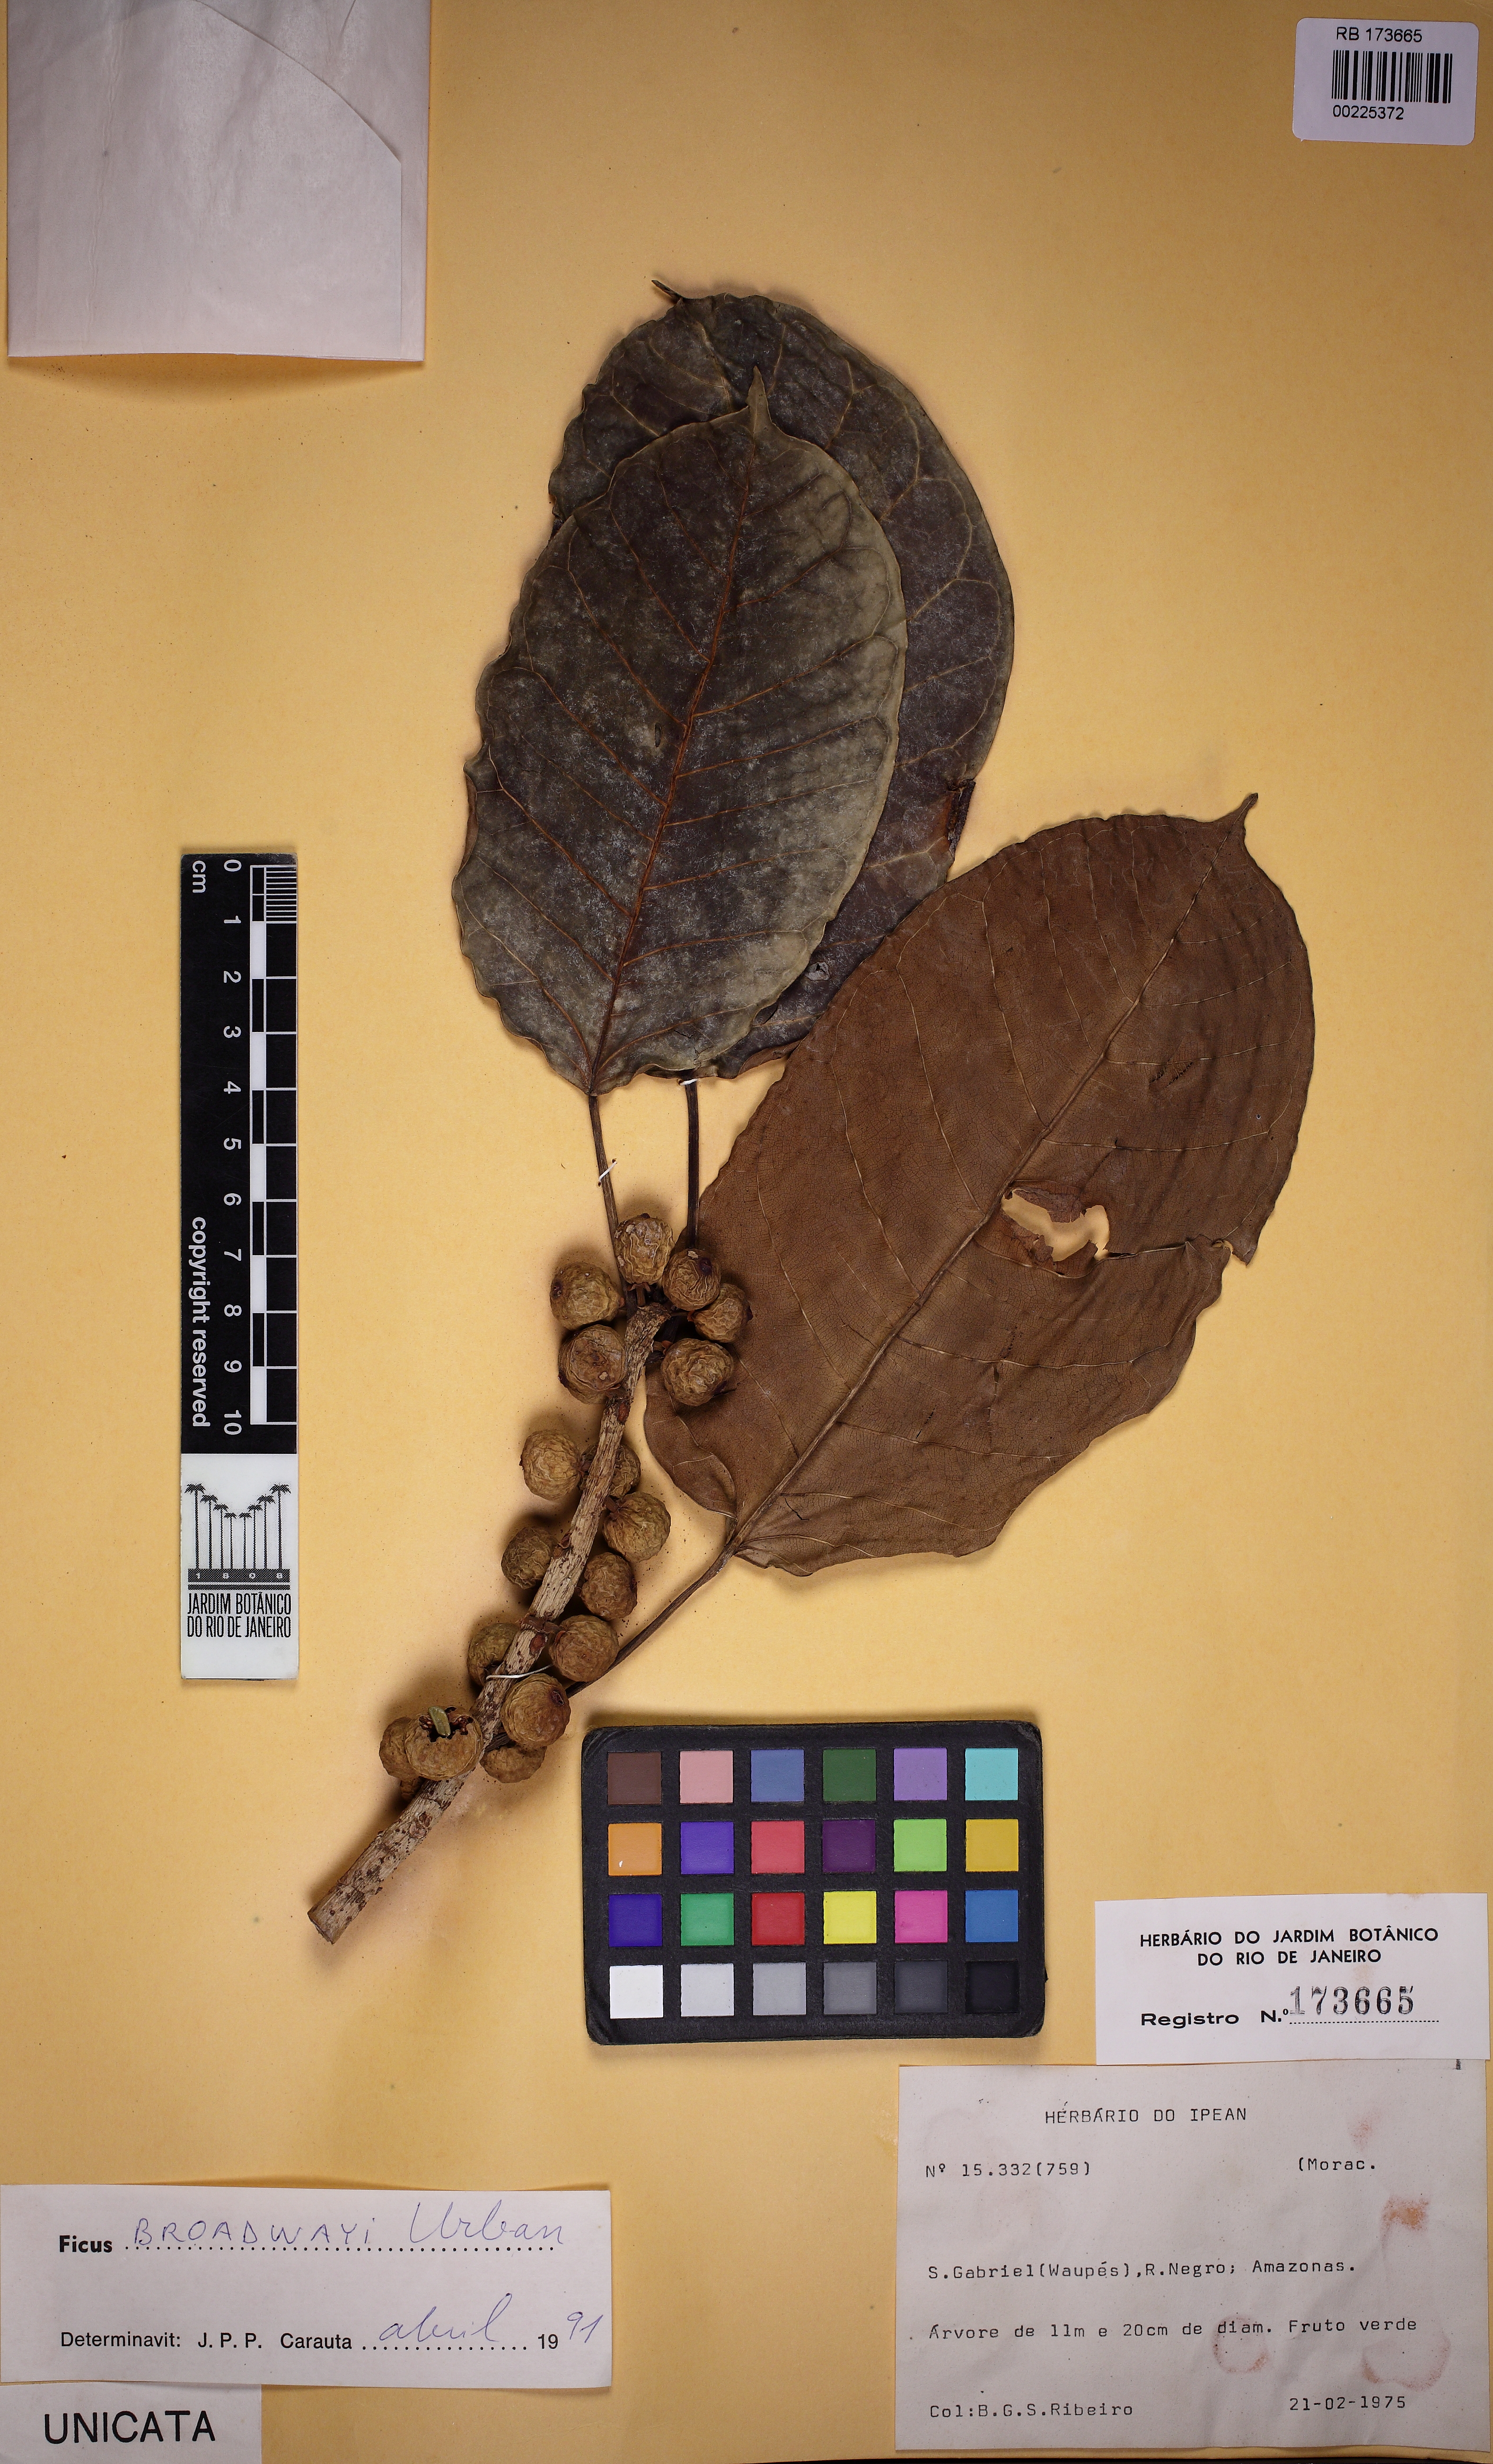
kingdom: Plantae
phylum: Tracheophyta
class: Magnoliopsida
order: Rosales
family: Moraceae
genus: Ficus
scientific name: Ficus guaranitica
